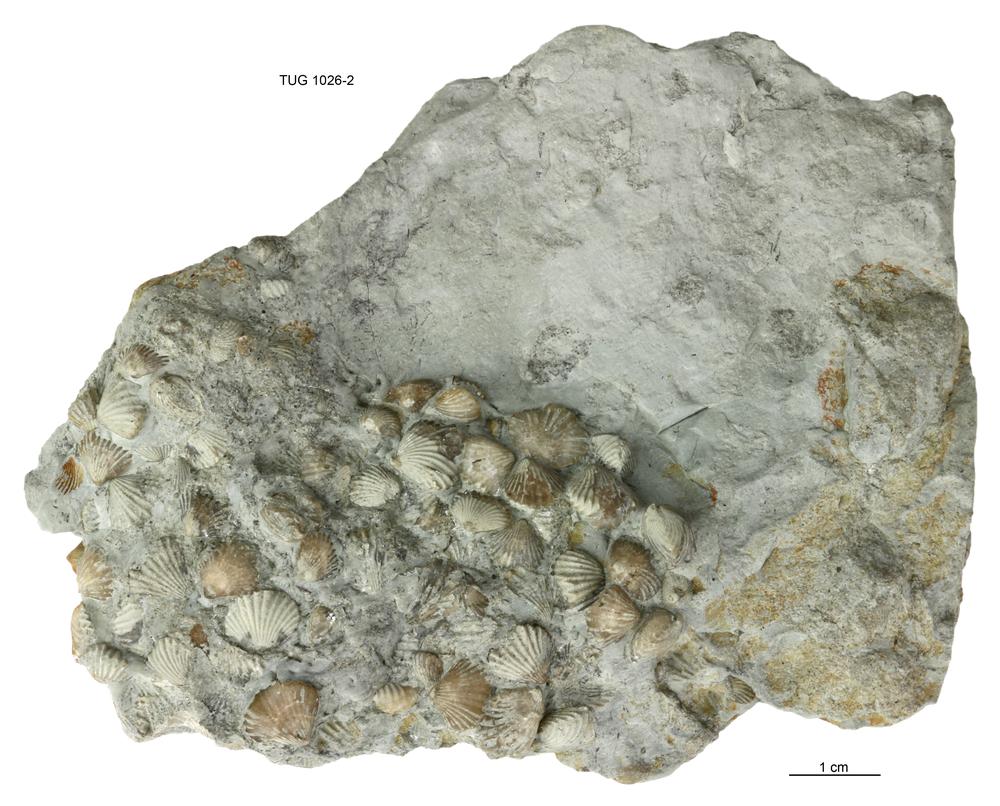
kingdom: Animalia
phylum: Brachiopoda
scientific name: Brachiopoda
